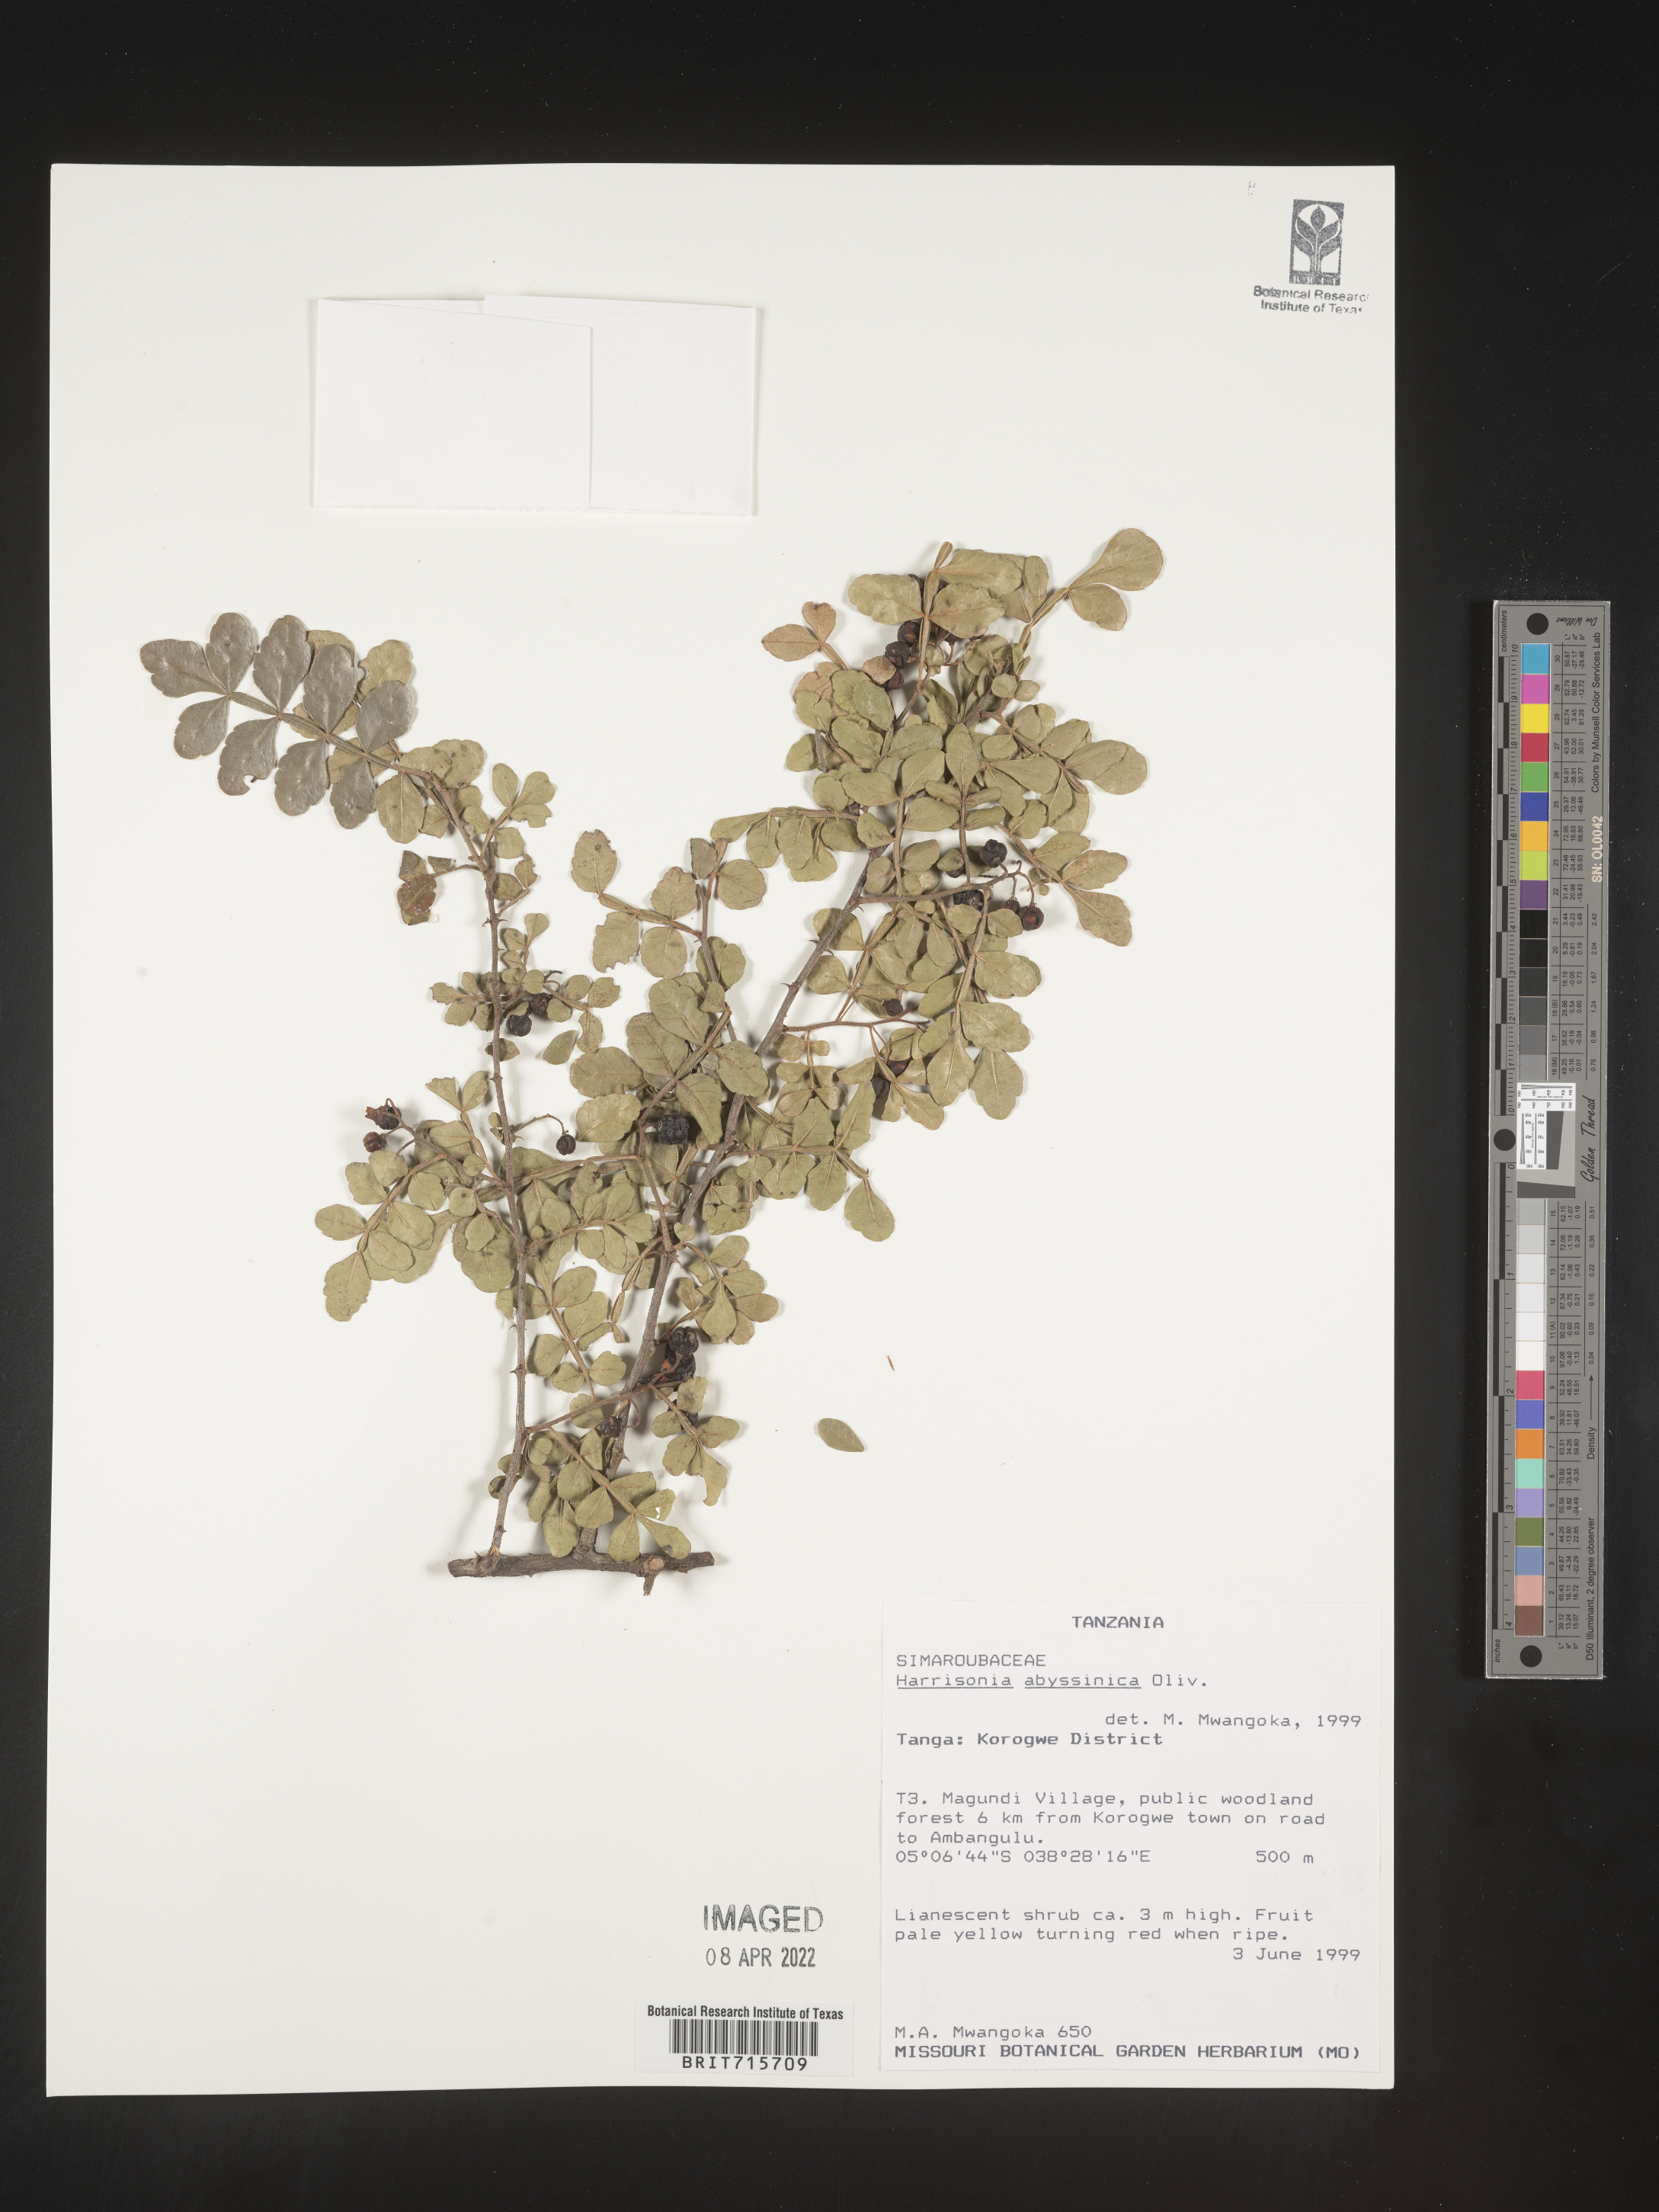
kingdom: Plantae
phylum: Tracheophyta
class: Magnoliopsida
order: Sapindales
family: Rutaceae
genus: Harrisonia
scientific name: Harrisonia
